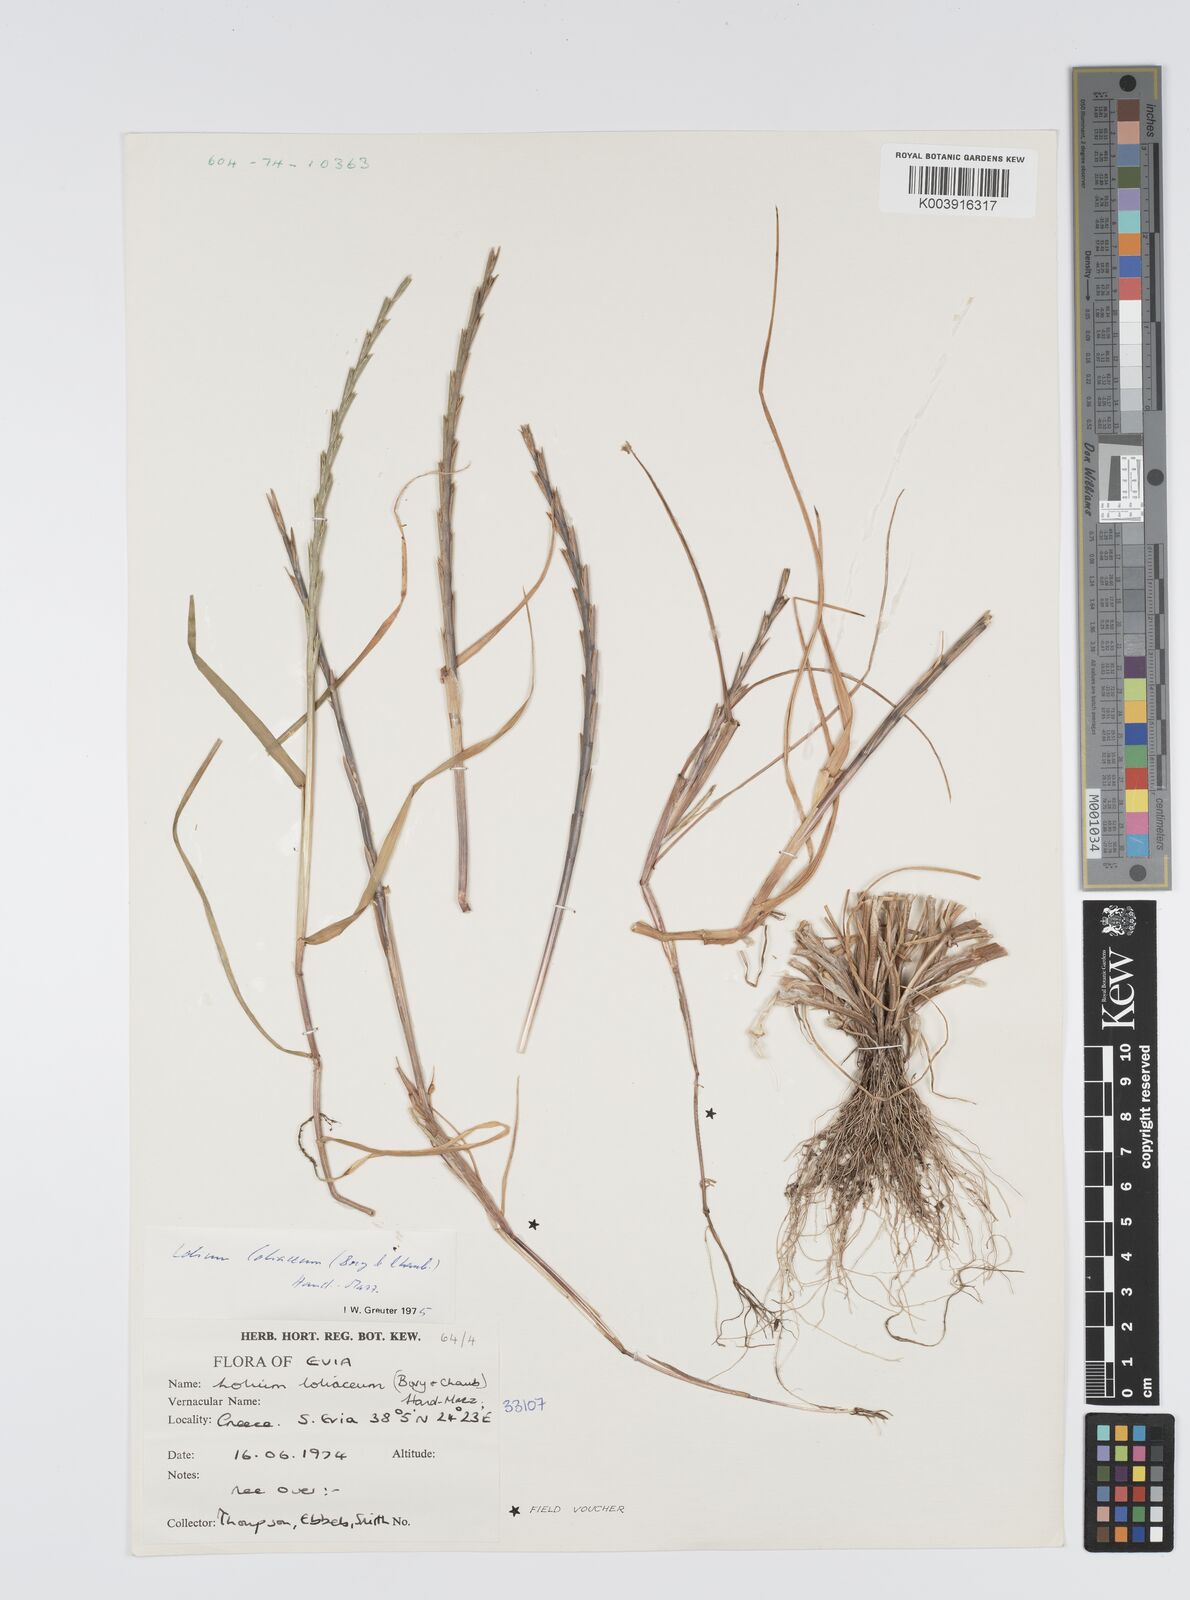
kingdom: Plantae
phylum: Tracheophyta
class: Liliopsida
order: Poales
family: Poaceae
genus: Lolium
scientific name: Lolium rigidum
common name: Wimmera ryegrass
